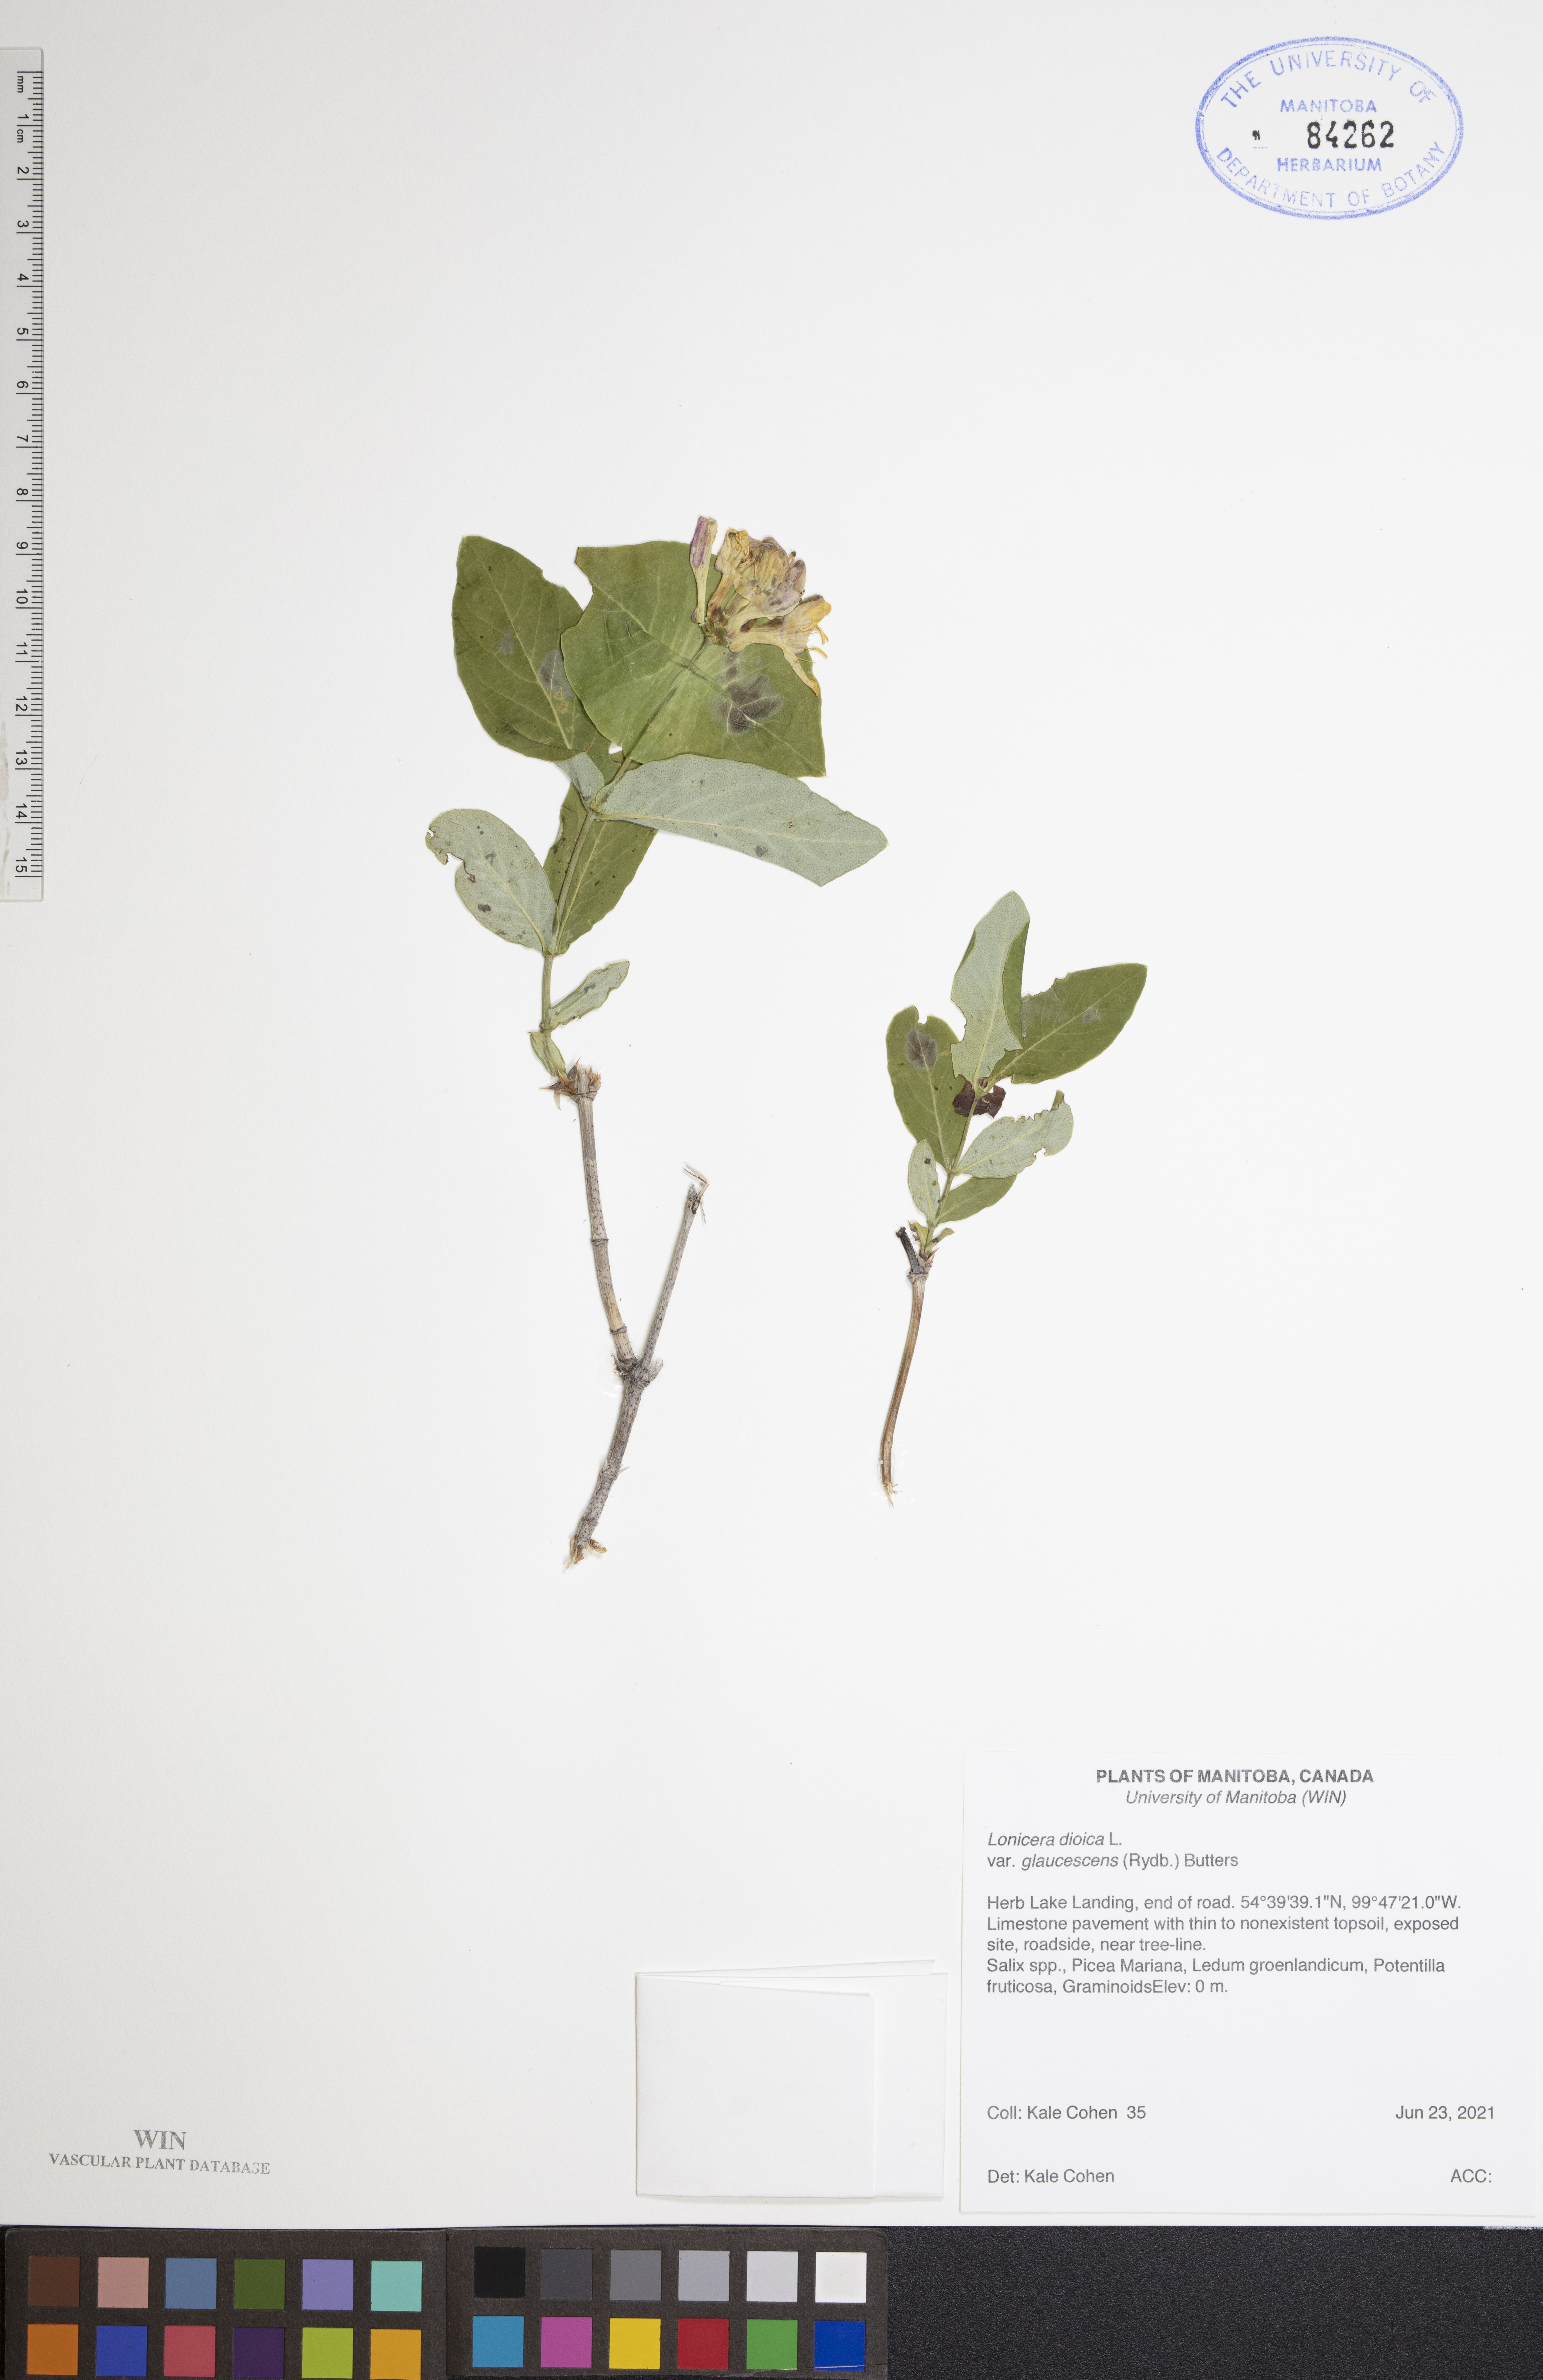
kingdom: Plantae
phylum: Tracheophyta
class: Magnoliopsida
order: Dipsacales
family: Caprifoliaceae
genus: Lonicera
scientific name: Lonicera dioica
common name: Limber honeysuckle
